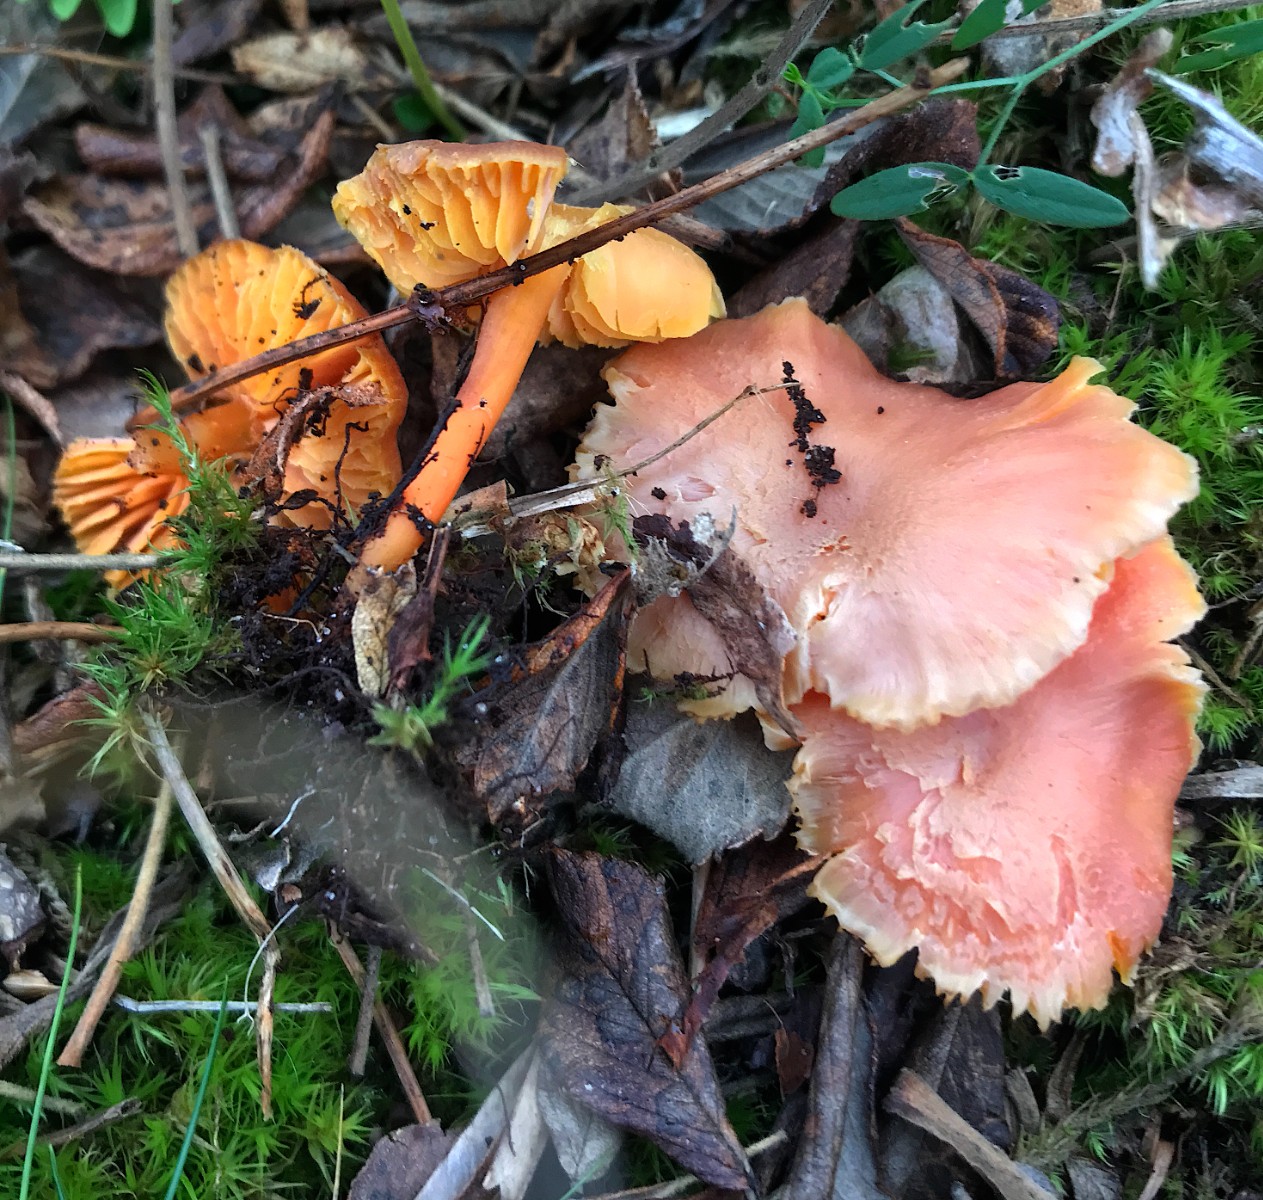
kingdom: Fungi
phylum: Basidiomycota
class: Agaricomycetes
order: Agaricales
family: Hygrophoraceae
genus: Hygrocybe
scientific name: Hygrocybe miniata
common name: mønje-vokshat
